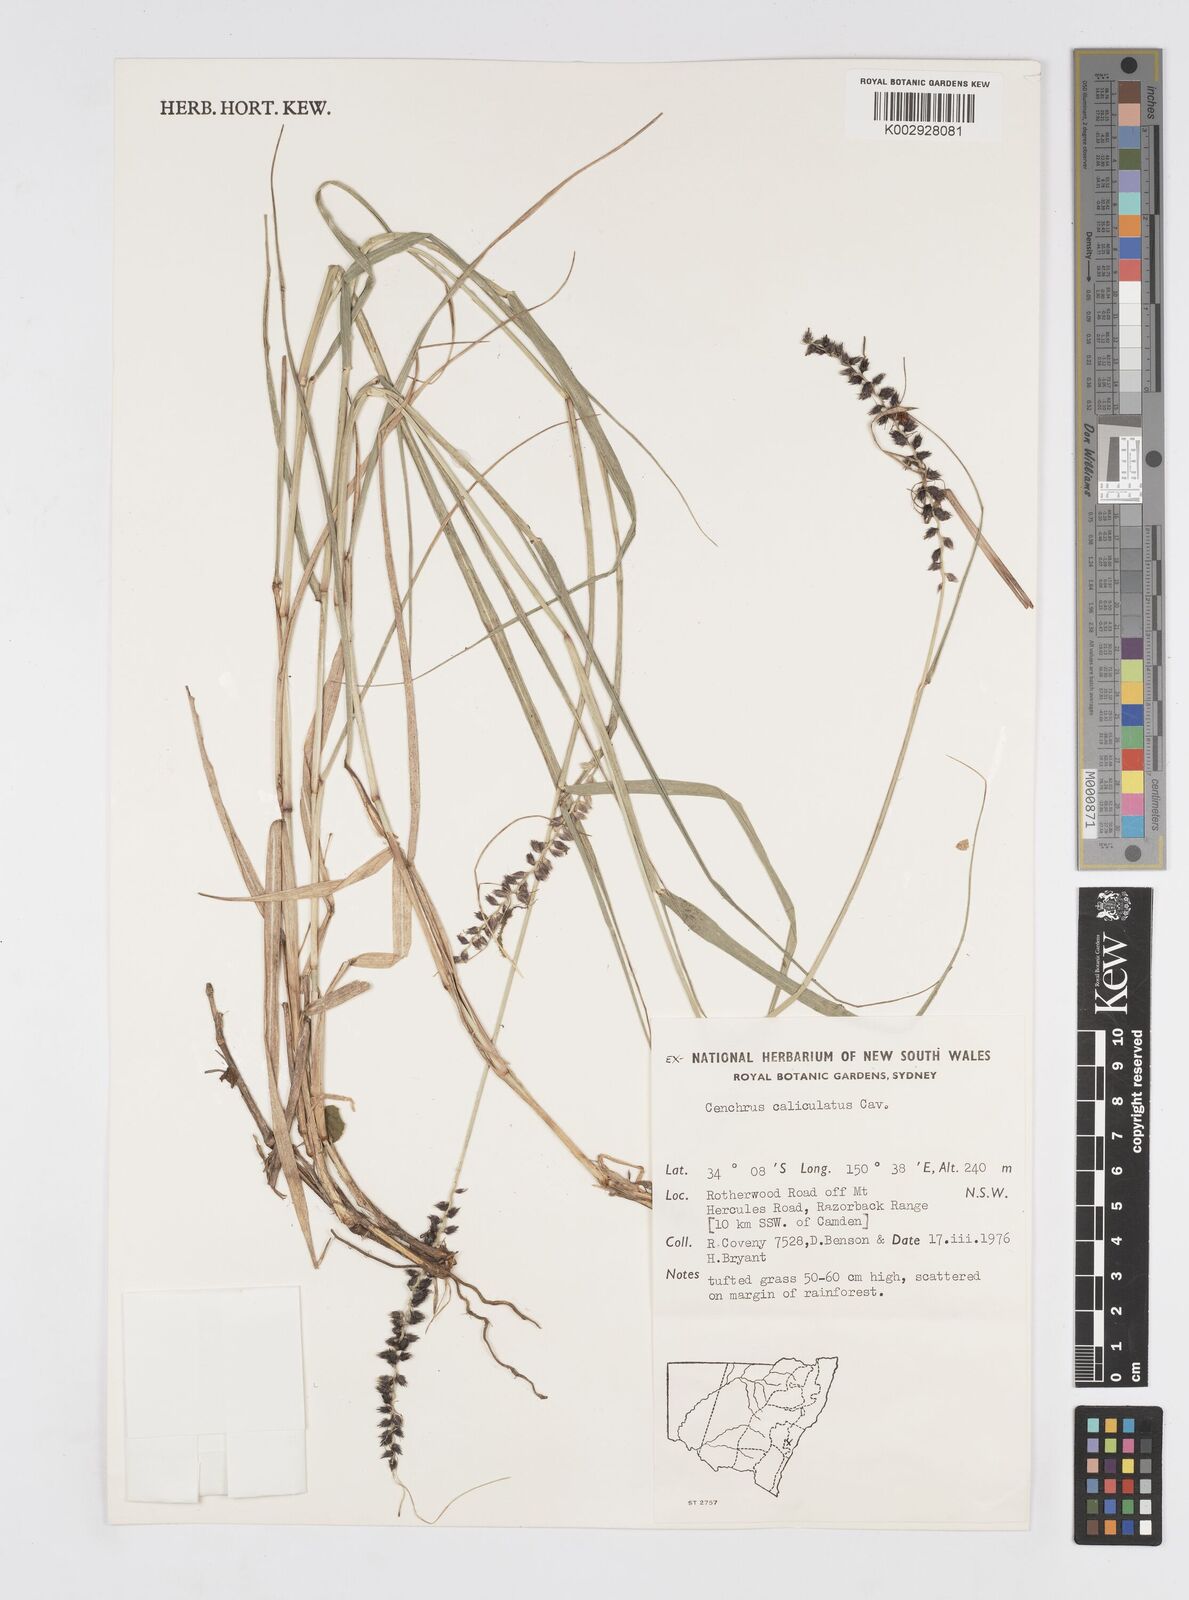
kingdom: Plantae
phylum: Tracheophyta
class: Liliopsida
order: Poales
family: Poaceae
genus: Cenchrus
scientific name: Cenchrus caliculatus
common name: Large bur grass
